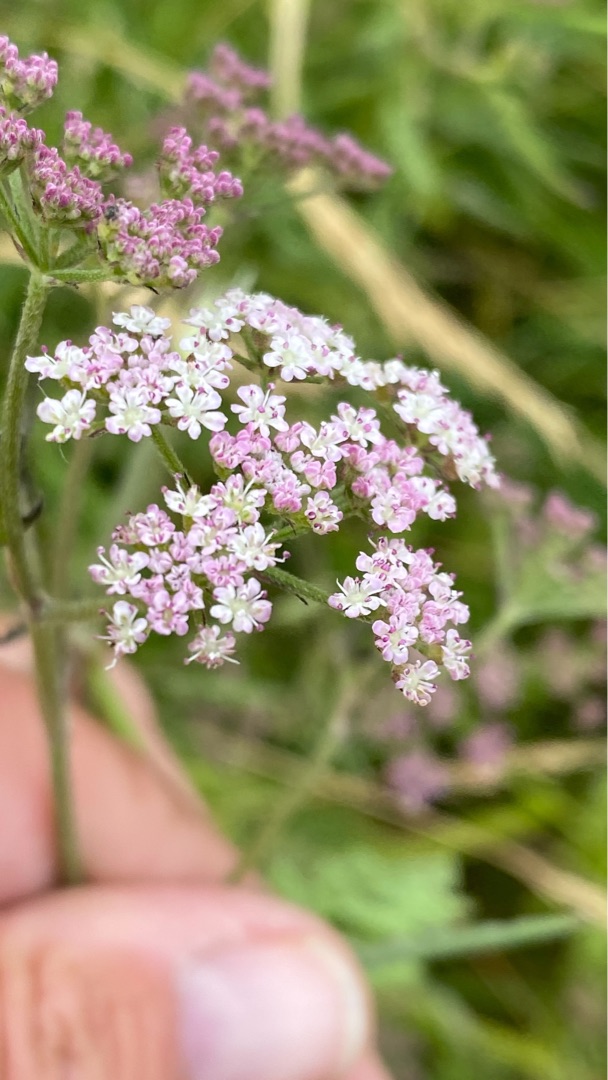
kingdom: Plantae
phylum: Tracheophyta
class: Magnoliopsida
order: Apiales
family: Apiaceae
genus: Torilis
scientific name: Torilis japonica
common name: Hvas randfrø
